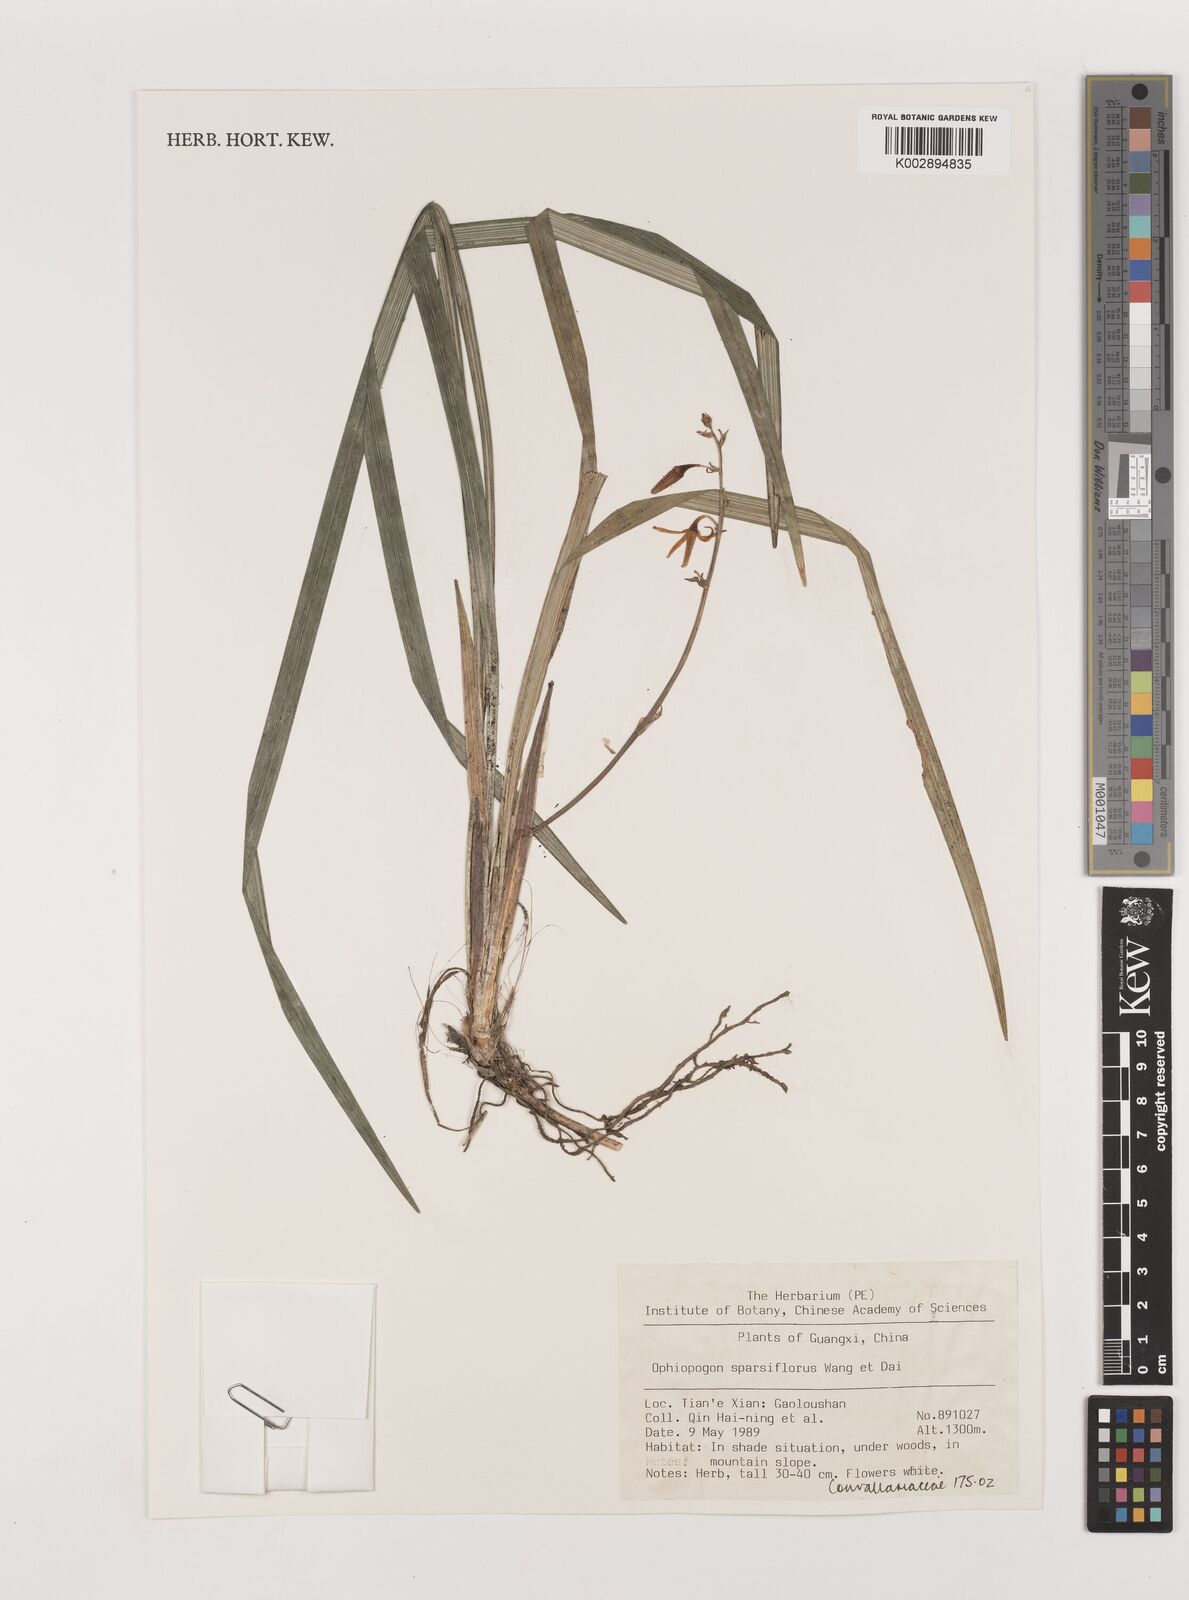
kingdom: Plantae
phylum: Tracheophyta
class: Liliopsida
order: Asparagales
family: Asparagaceae
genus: Ophiopogon
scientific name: Ophiopogon sparsiflorus
